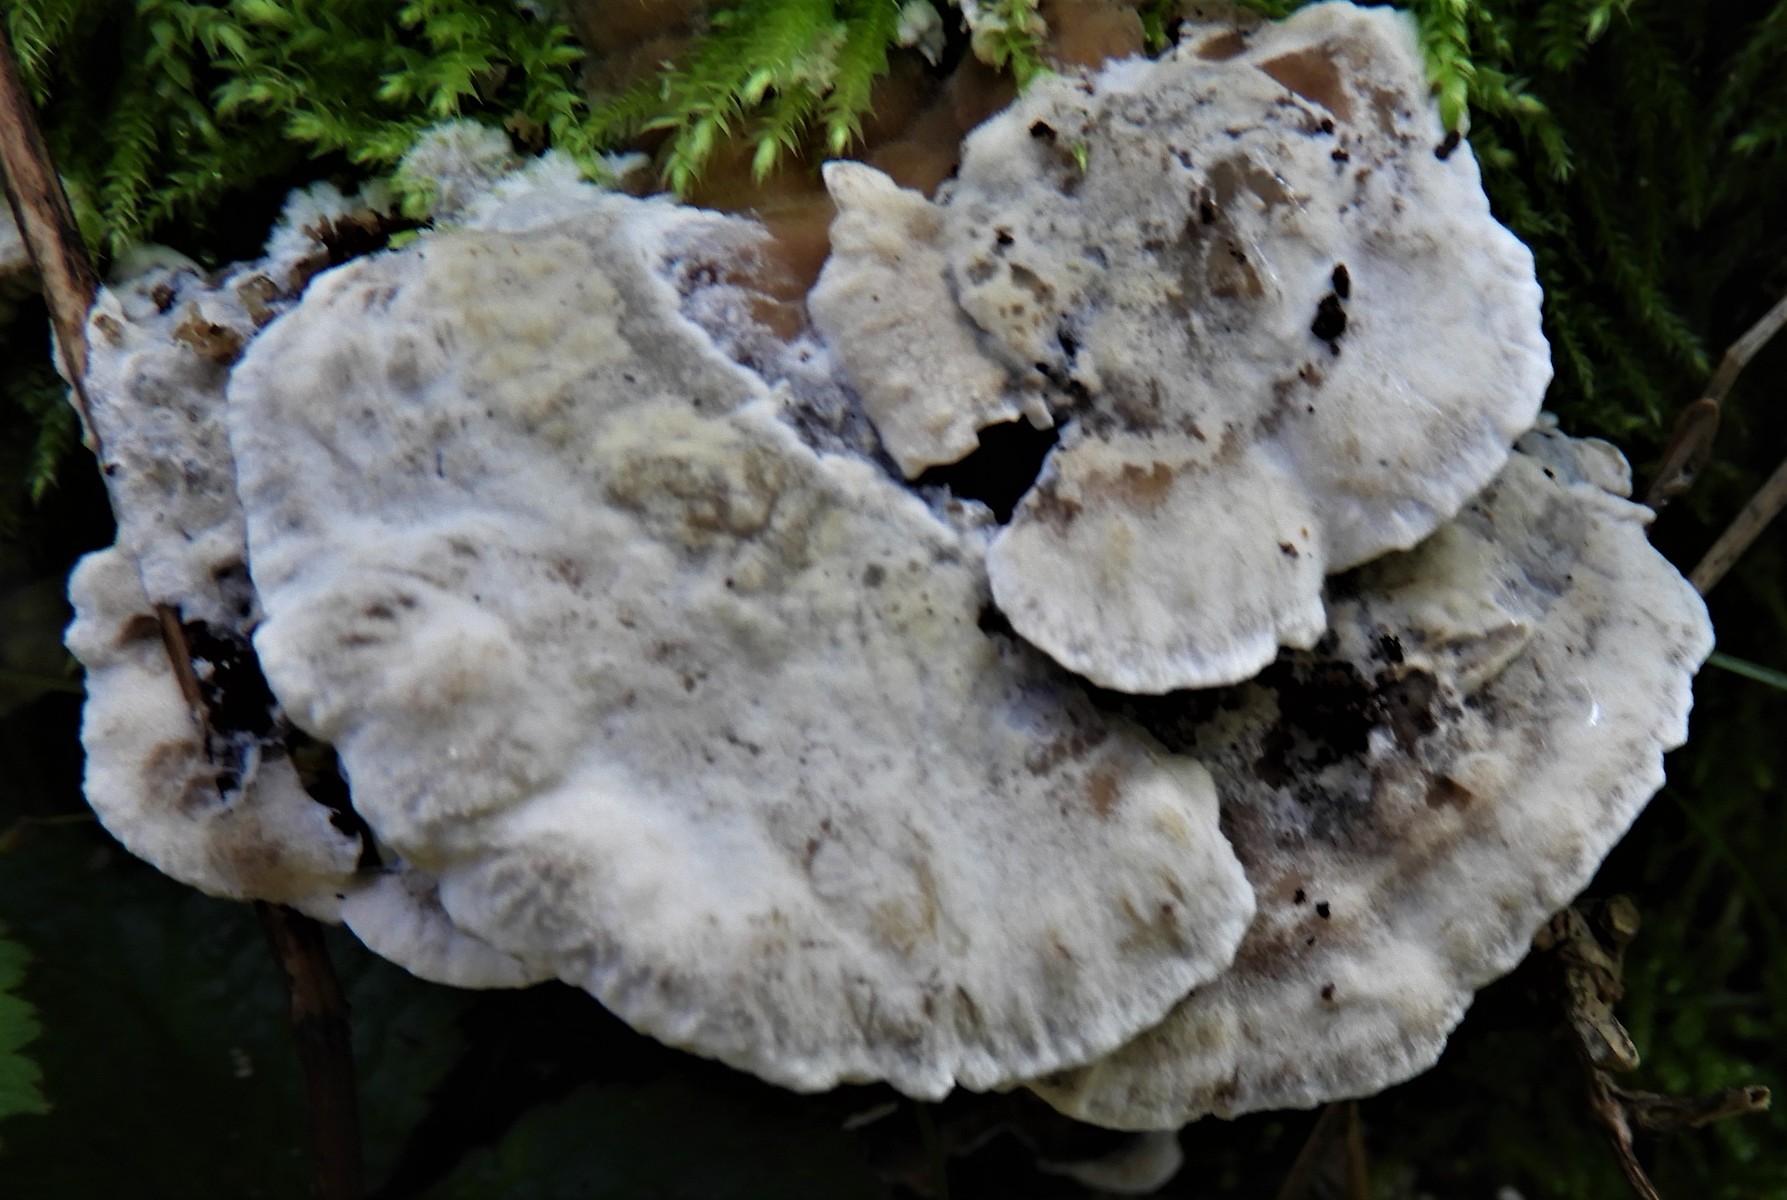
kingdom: Fungi
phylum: Basidiomycota
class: Agaricomycetes
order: Polyporales
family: Phanerochaetaceae
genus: Bjerkandera
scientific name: Bjerkandera adusta
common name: sveden sodporesvamp
